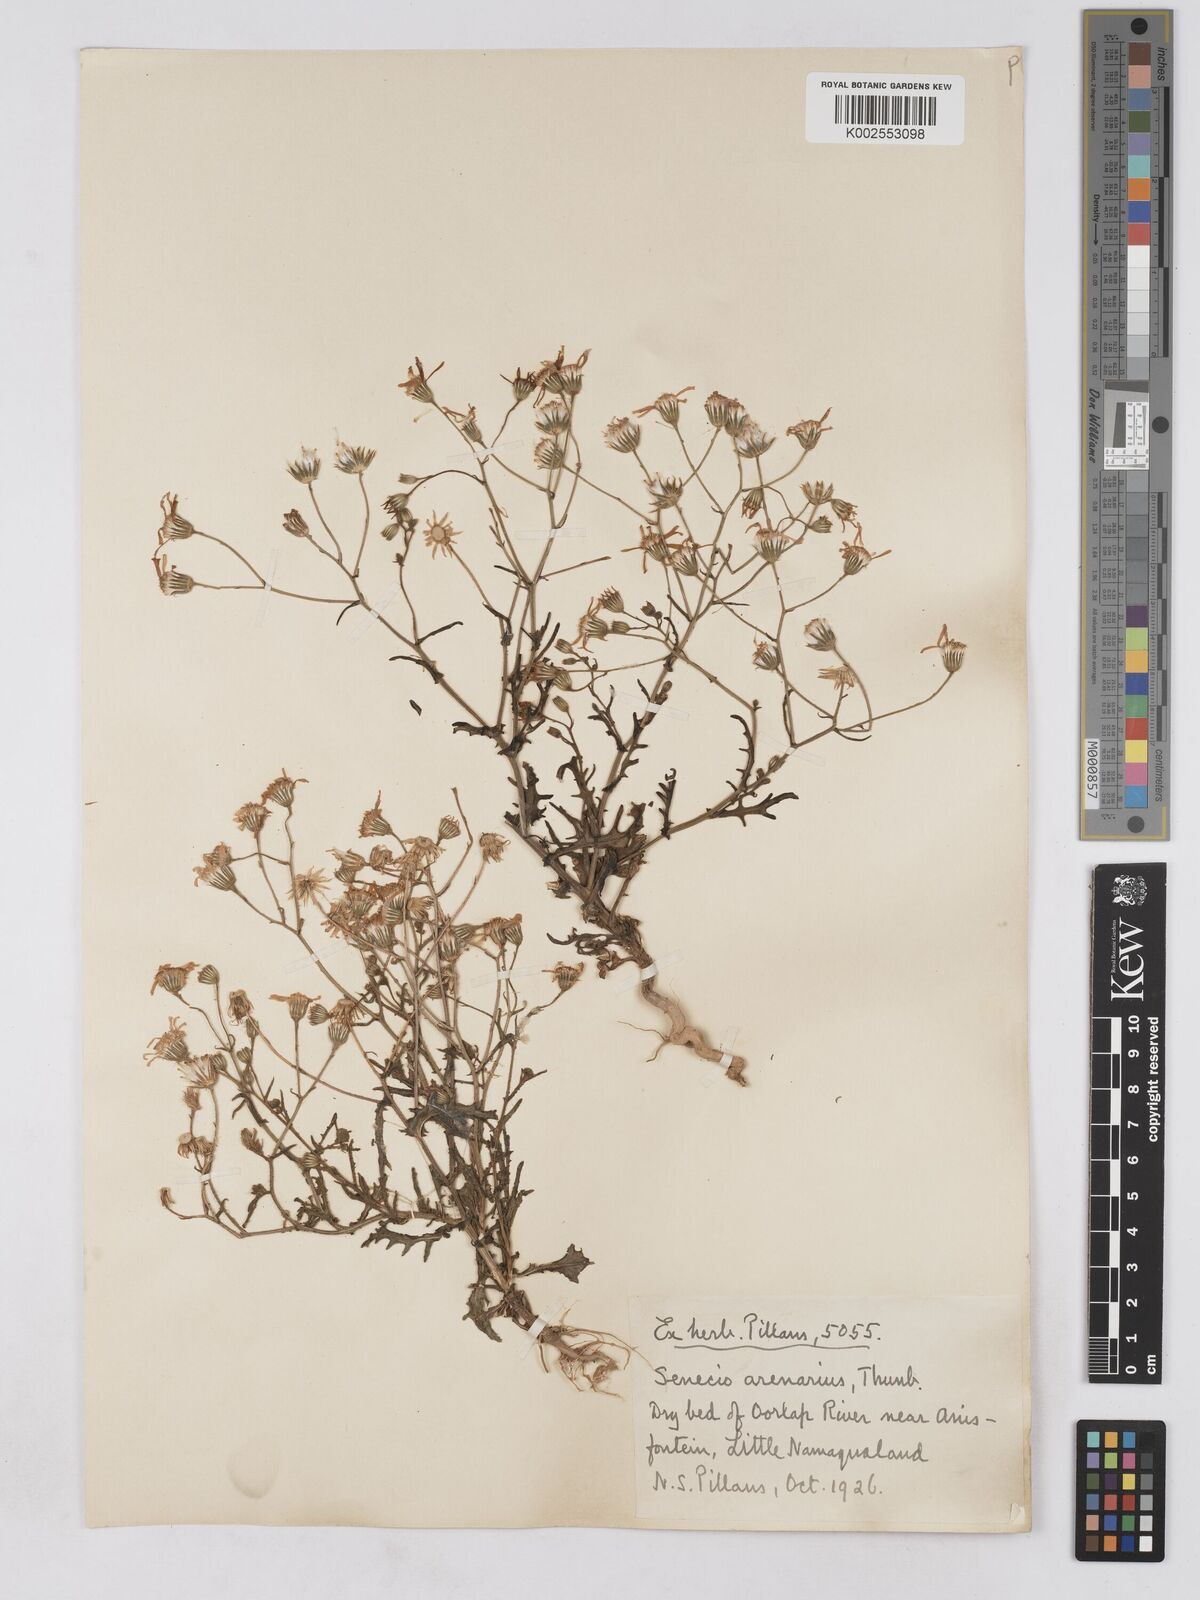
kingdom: Plantae
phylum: Tracheophyta
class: Magnoliopsida
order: Asterales
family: Asteraceae
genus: Senecio
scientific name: Senecio arenarius
